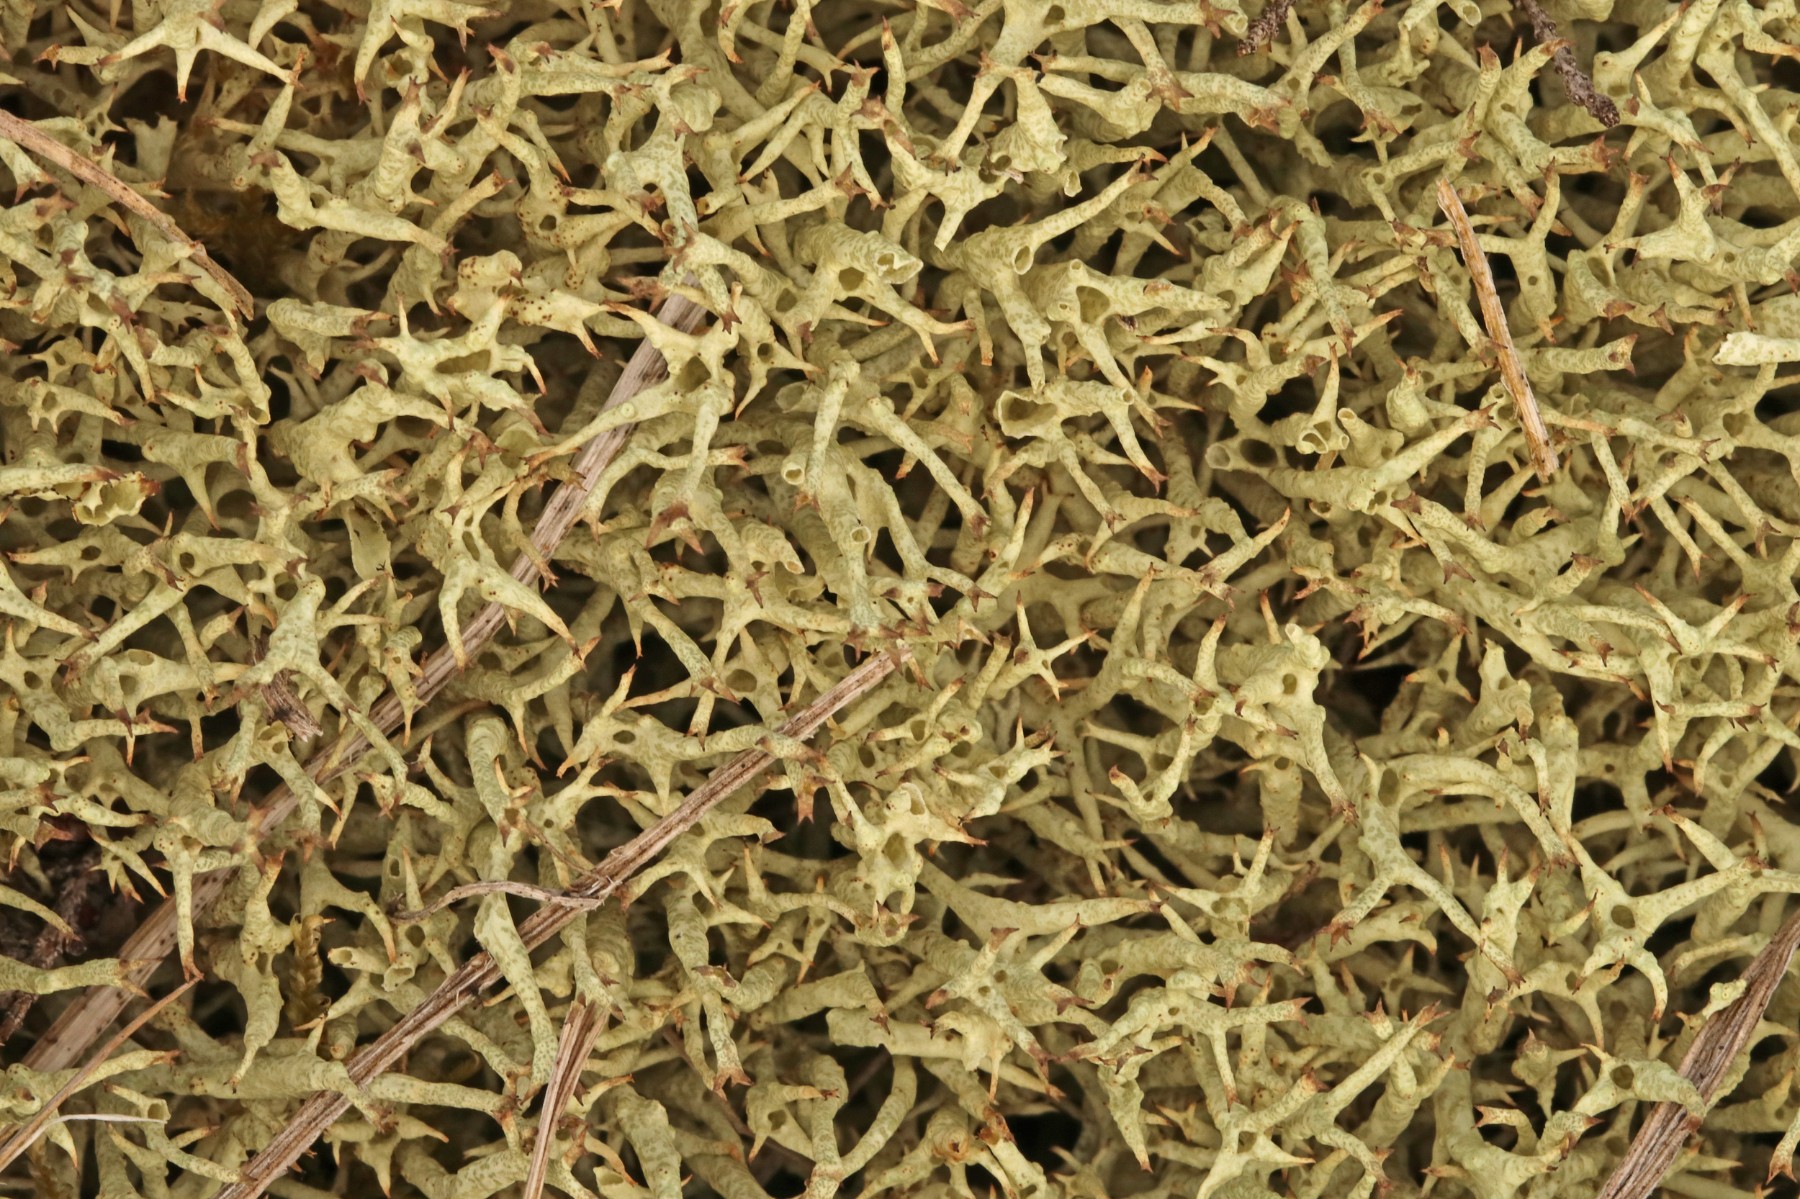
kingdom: Fungi
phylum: Ascomycota
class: Lecanoromycetes
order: Lecanorales
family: Cladoniaceae
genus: Cladonia
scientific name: Cladonia uncialis
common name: pigget bægerlav
